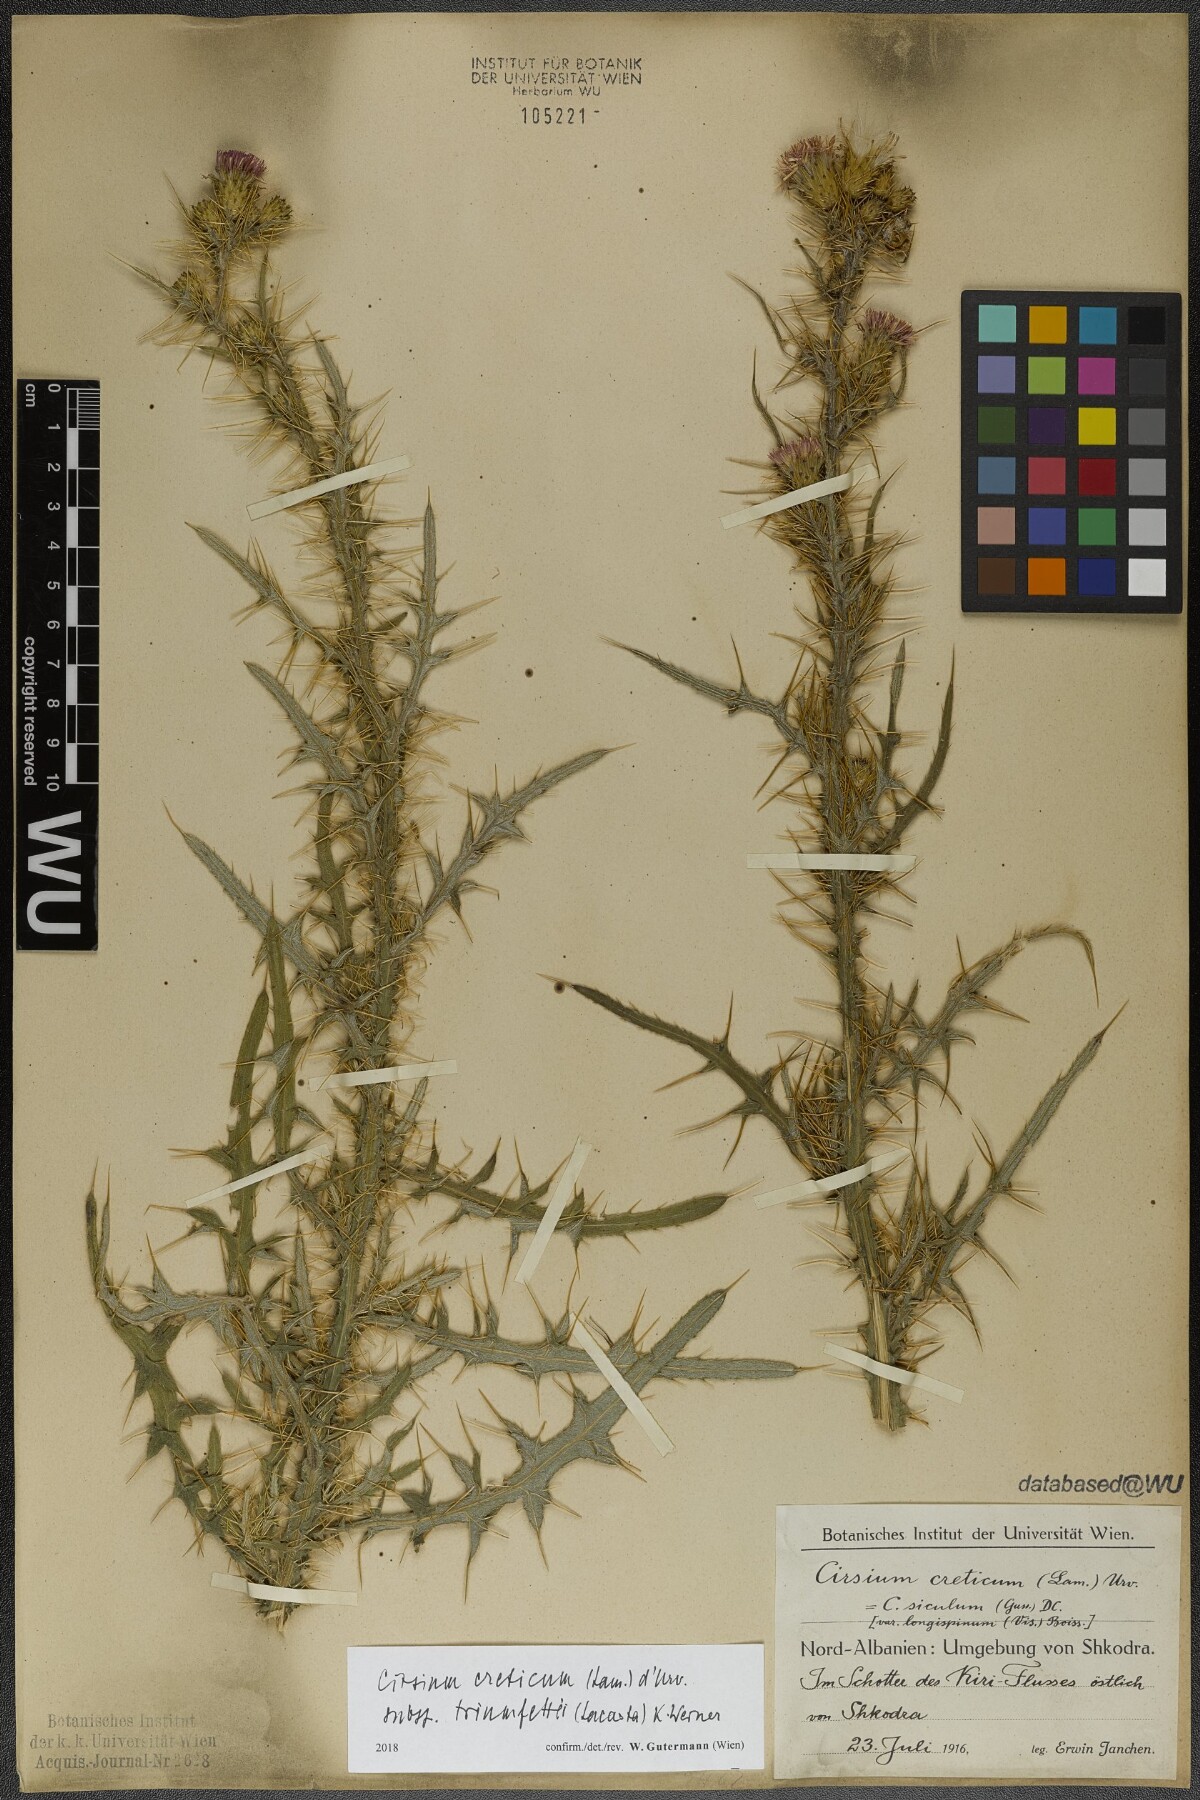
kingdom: Plantae
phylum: Tracheophyta
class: Magnoliopsida
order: Asterales
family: Asteraceae
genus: Cirsium
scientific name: Cirsium creticum
